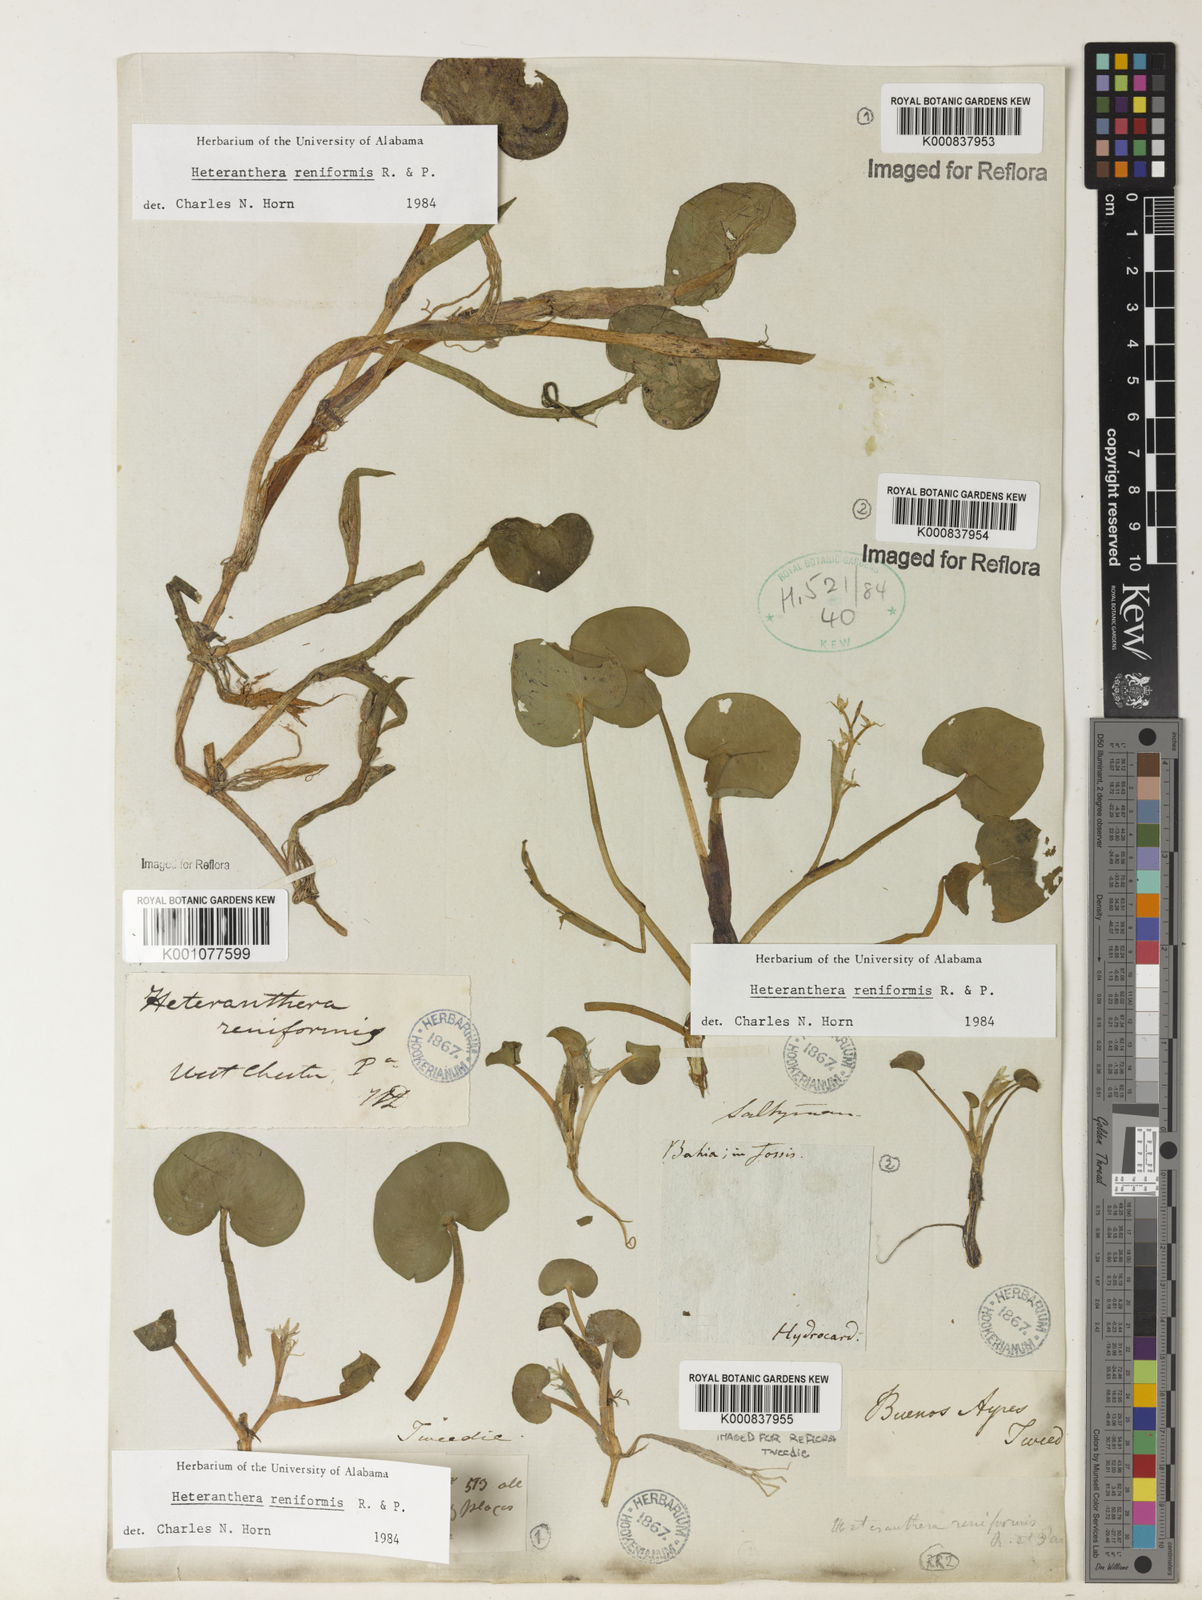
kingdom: Plantae
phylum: Tracheophyta
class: Liliopsida
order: Commelinales
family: Pontederiaceae
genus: Heteranthera
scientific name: Heteranthera reniformis
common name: Kidneyleaf mudplantain
